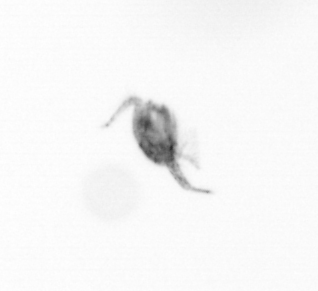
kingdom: Animalia
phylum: Arthropoda
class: Copepoda
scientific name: Copepoda
